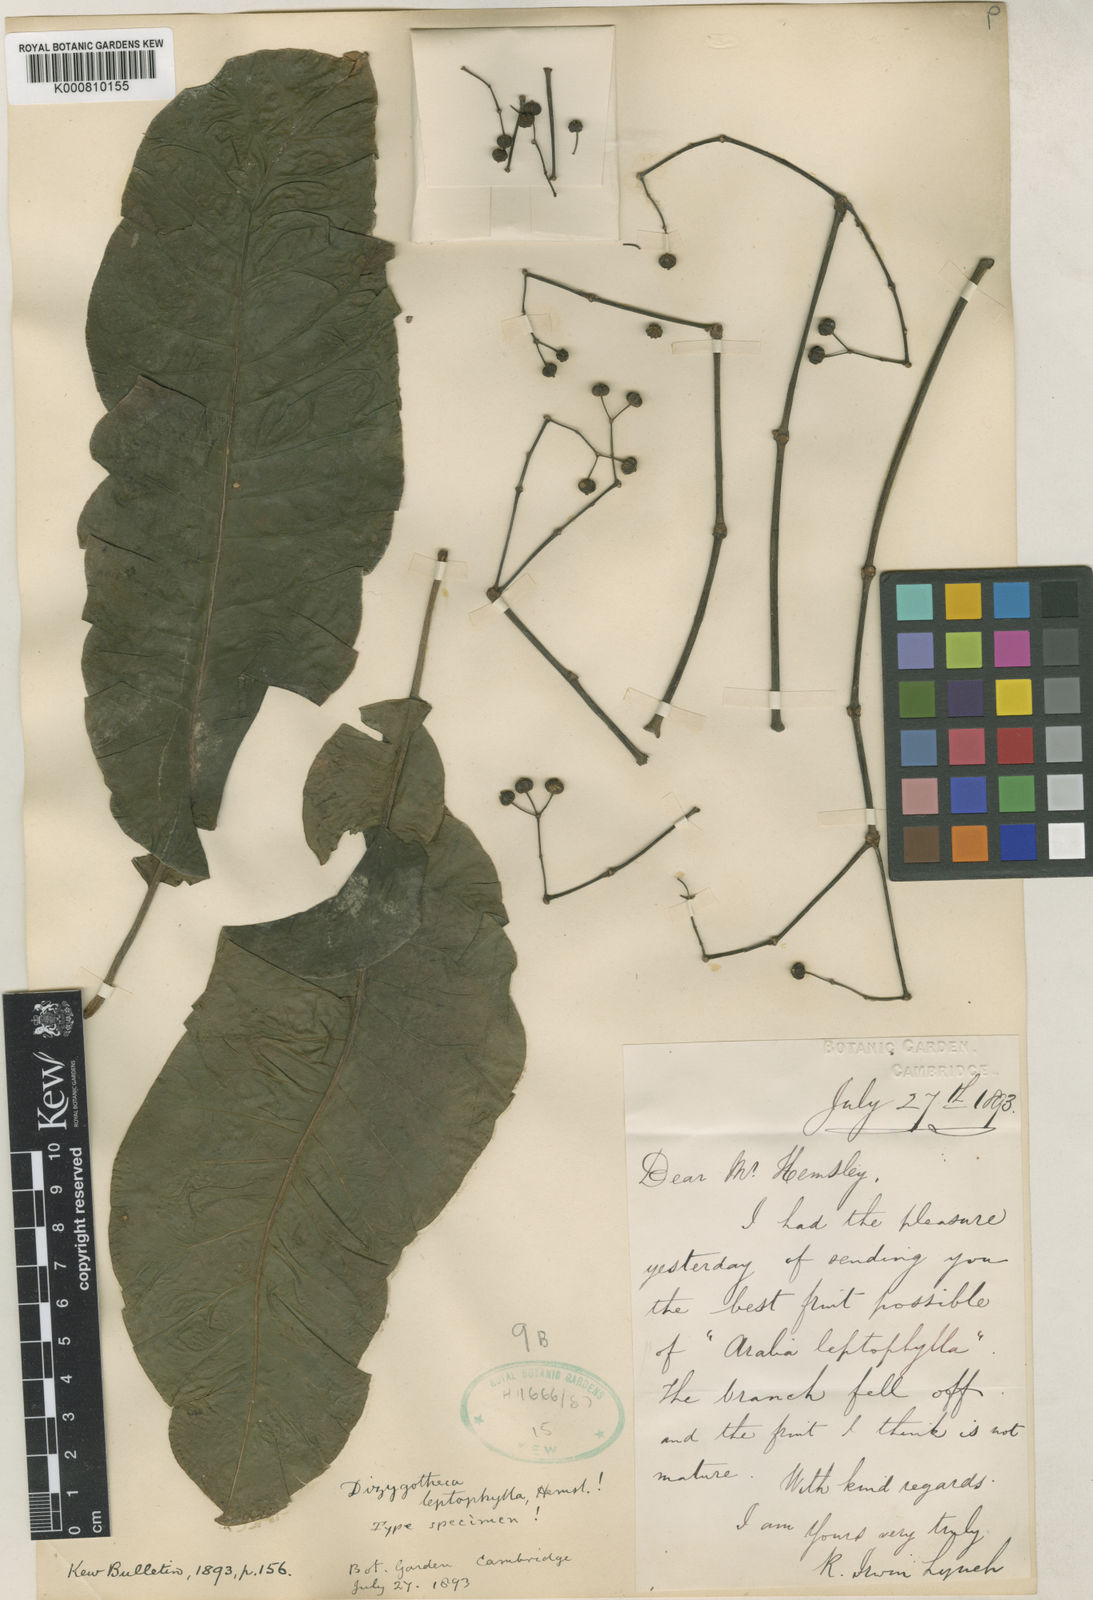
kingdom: Plantae
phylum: Tracheophyta
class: Magnoliopsida
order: Apiales
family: Araliaceae
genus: Plerandra
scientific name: Plerandra leptophylla
